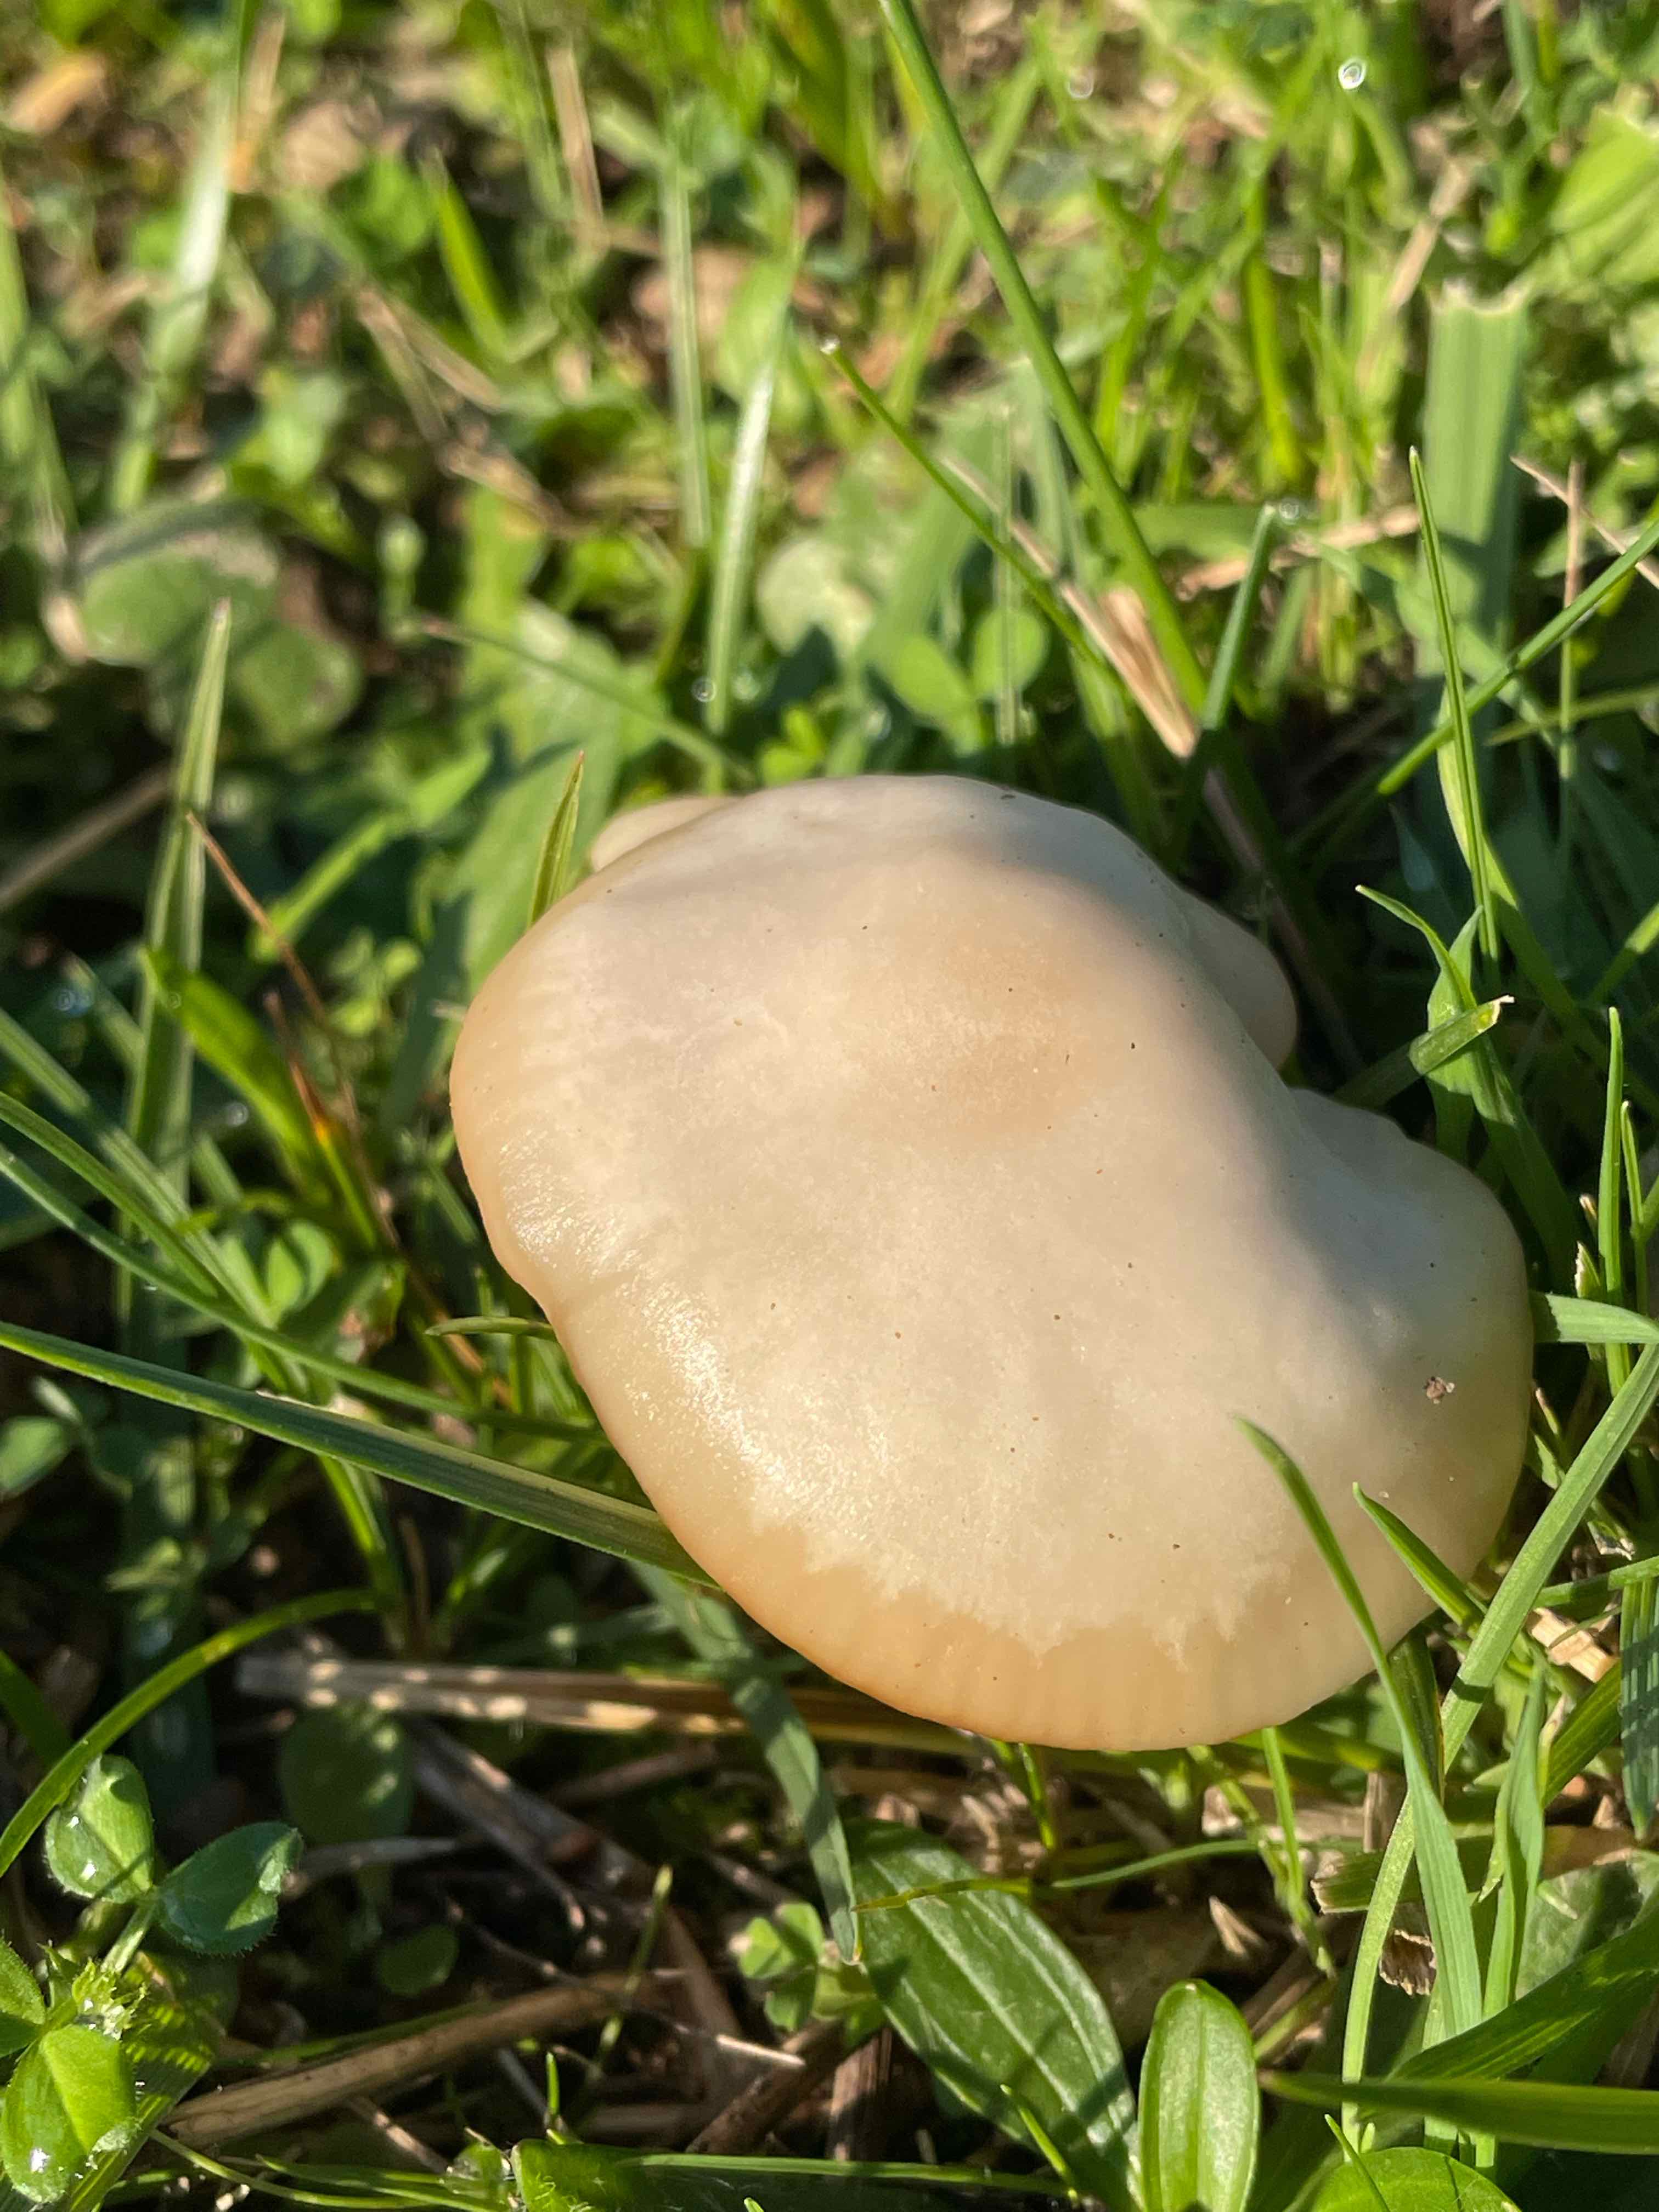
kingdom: Fungi
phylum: Basidiomycota
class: Agaricomycetes
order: Agaricales
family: Hygrophoraceae
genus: Cuphophyllus
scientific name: Cuphophyllus virgineus
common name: snehvid vokshat
